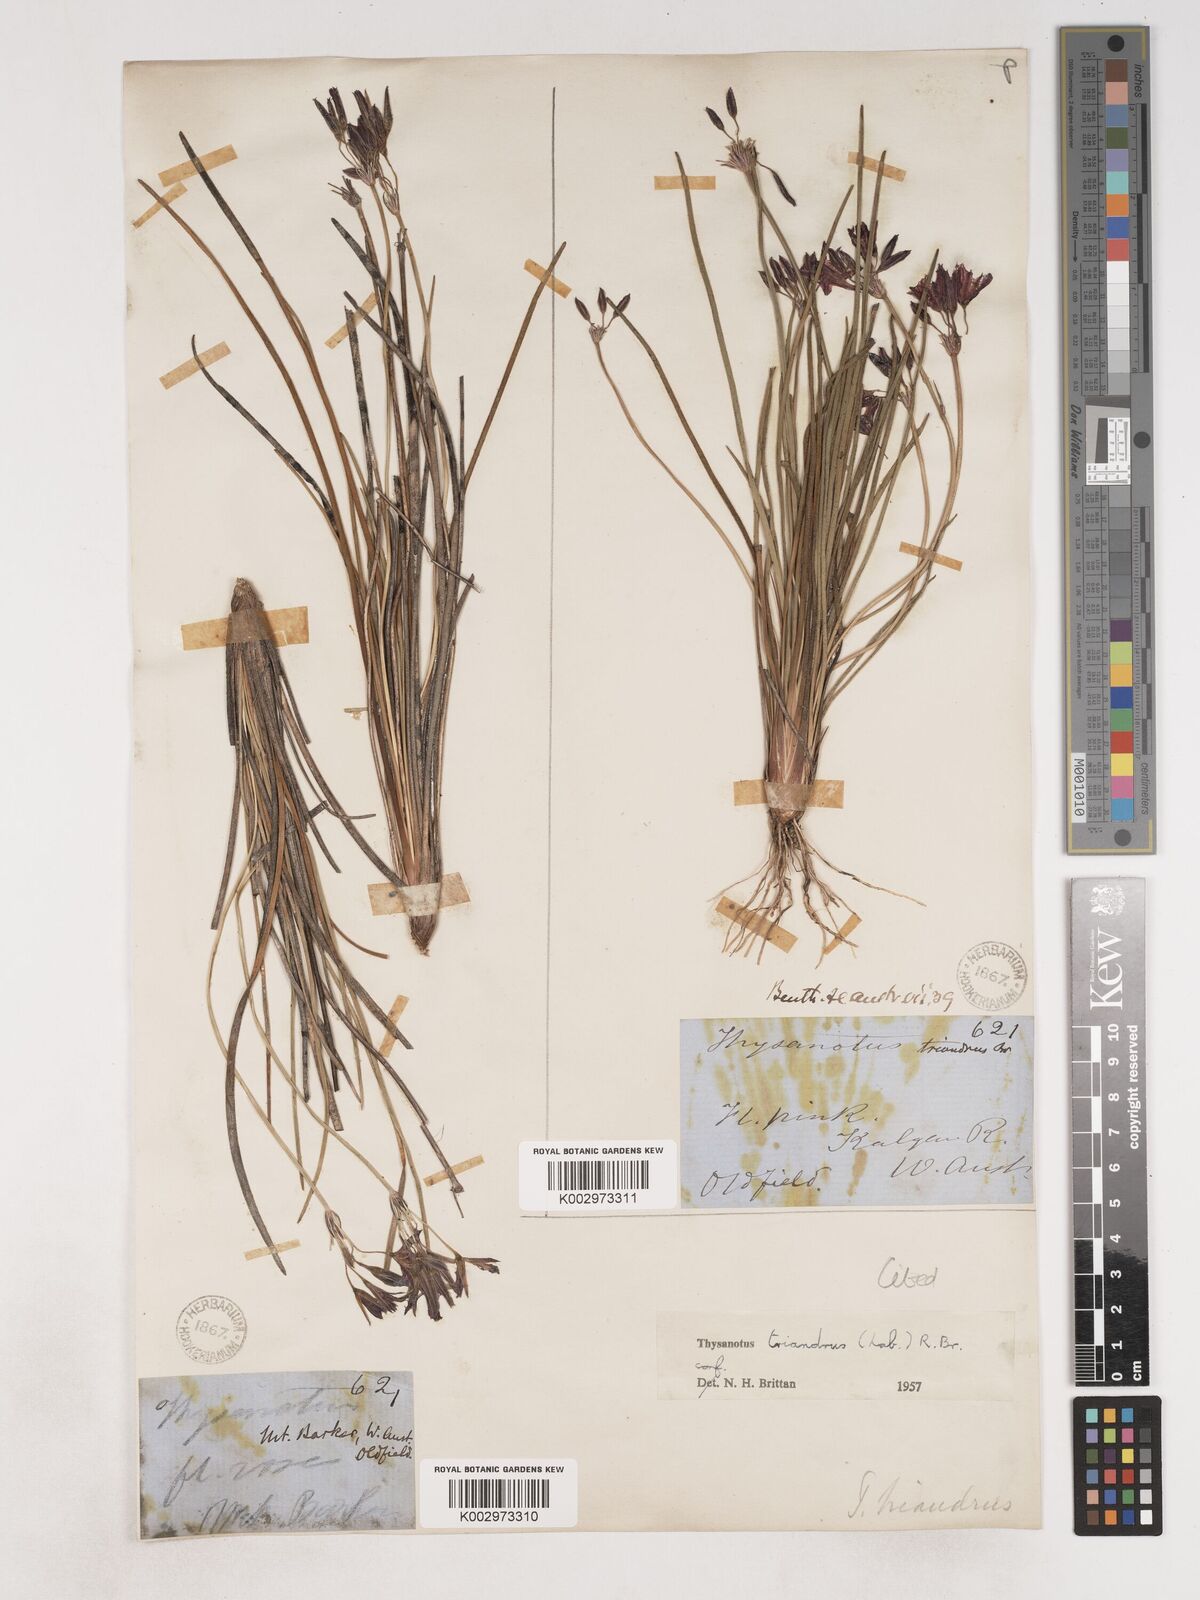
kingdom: Plantae
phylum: Tracheophyta
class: Liliopsida
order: Asparagales
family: Asparagaceae
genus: Thysanotus
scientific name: Thysanotus triandrus
